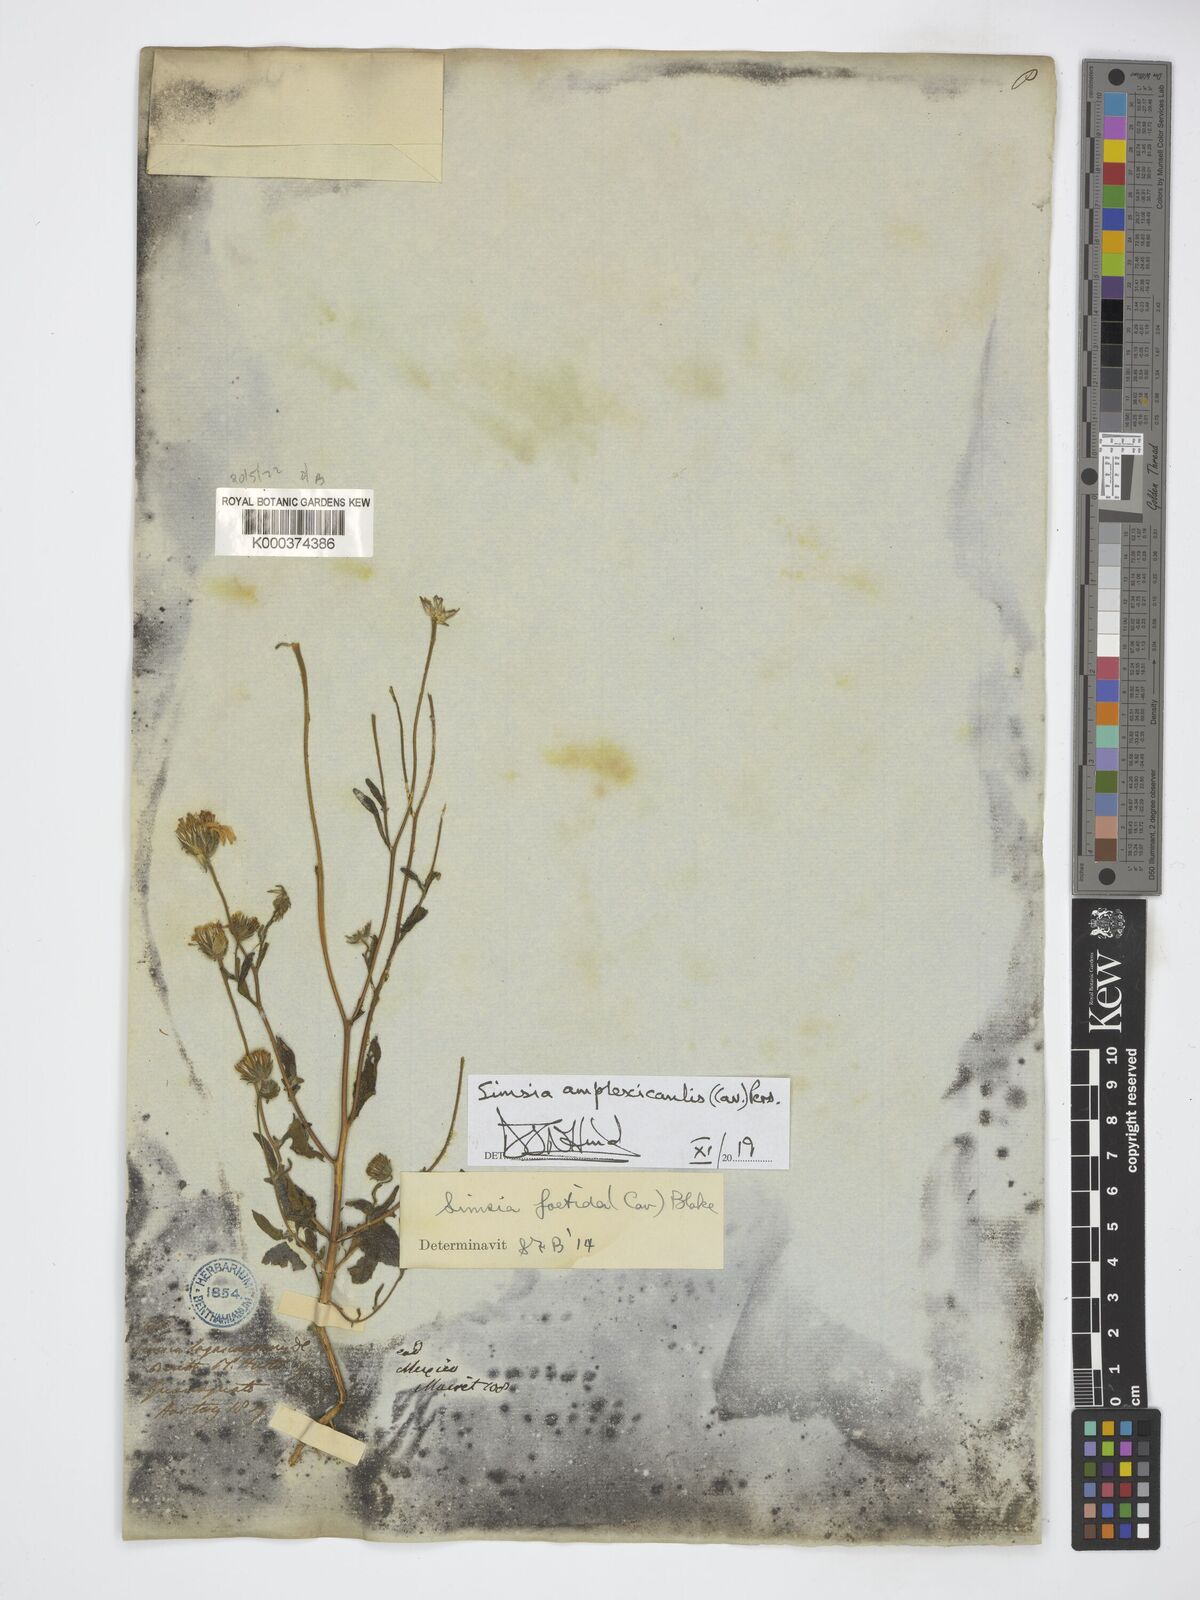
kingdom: Plantae
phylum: Tracheophyta
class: Magnoliopsida
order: Asterales
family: Asteraceae
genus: Simsia
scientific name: Simsia amplexicaulis
